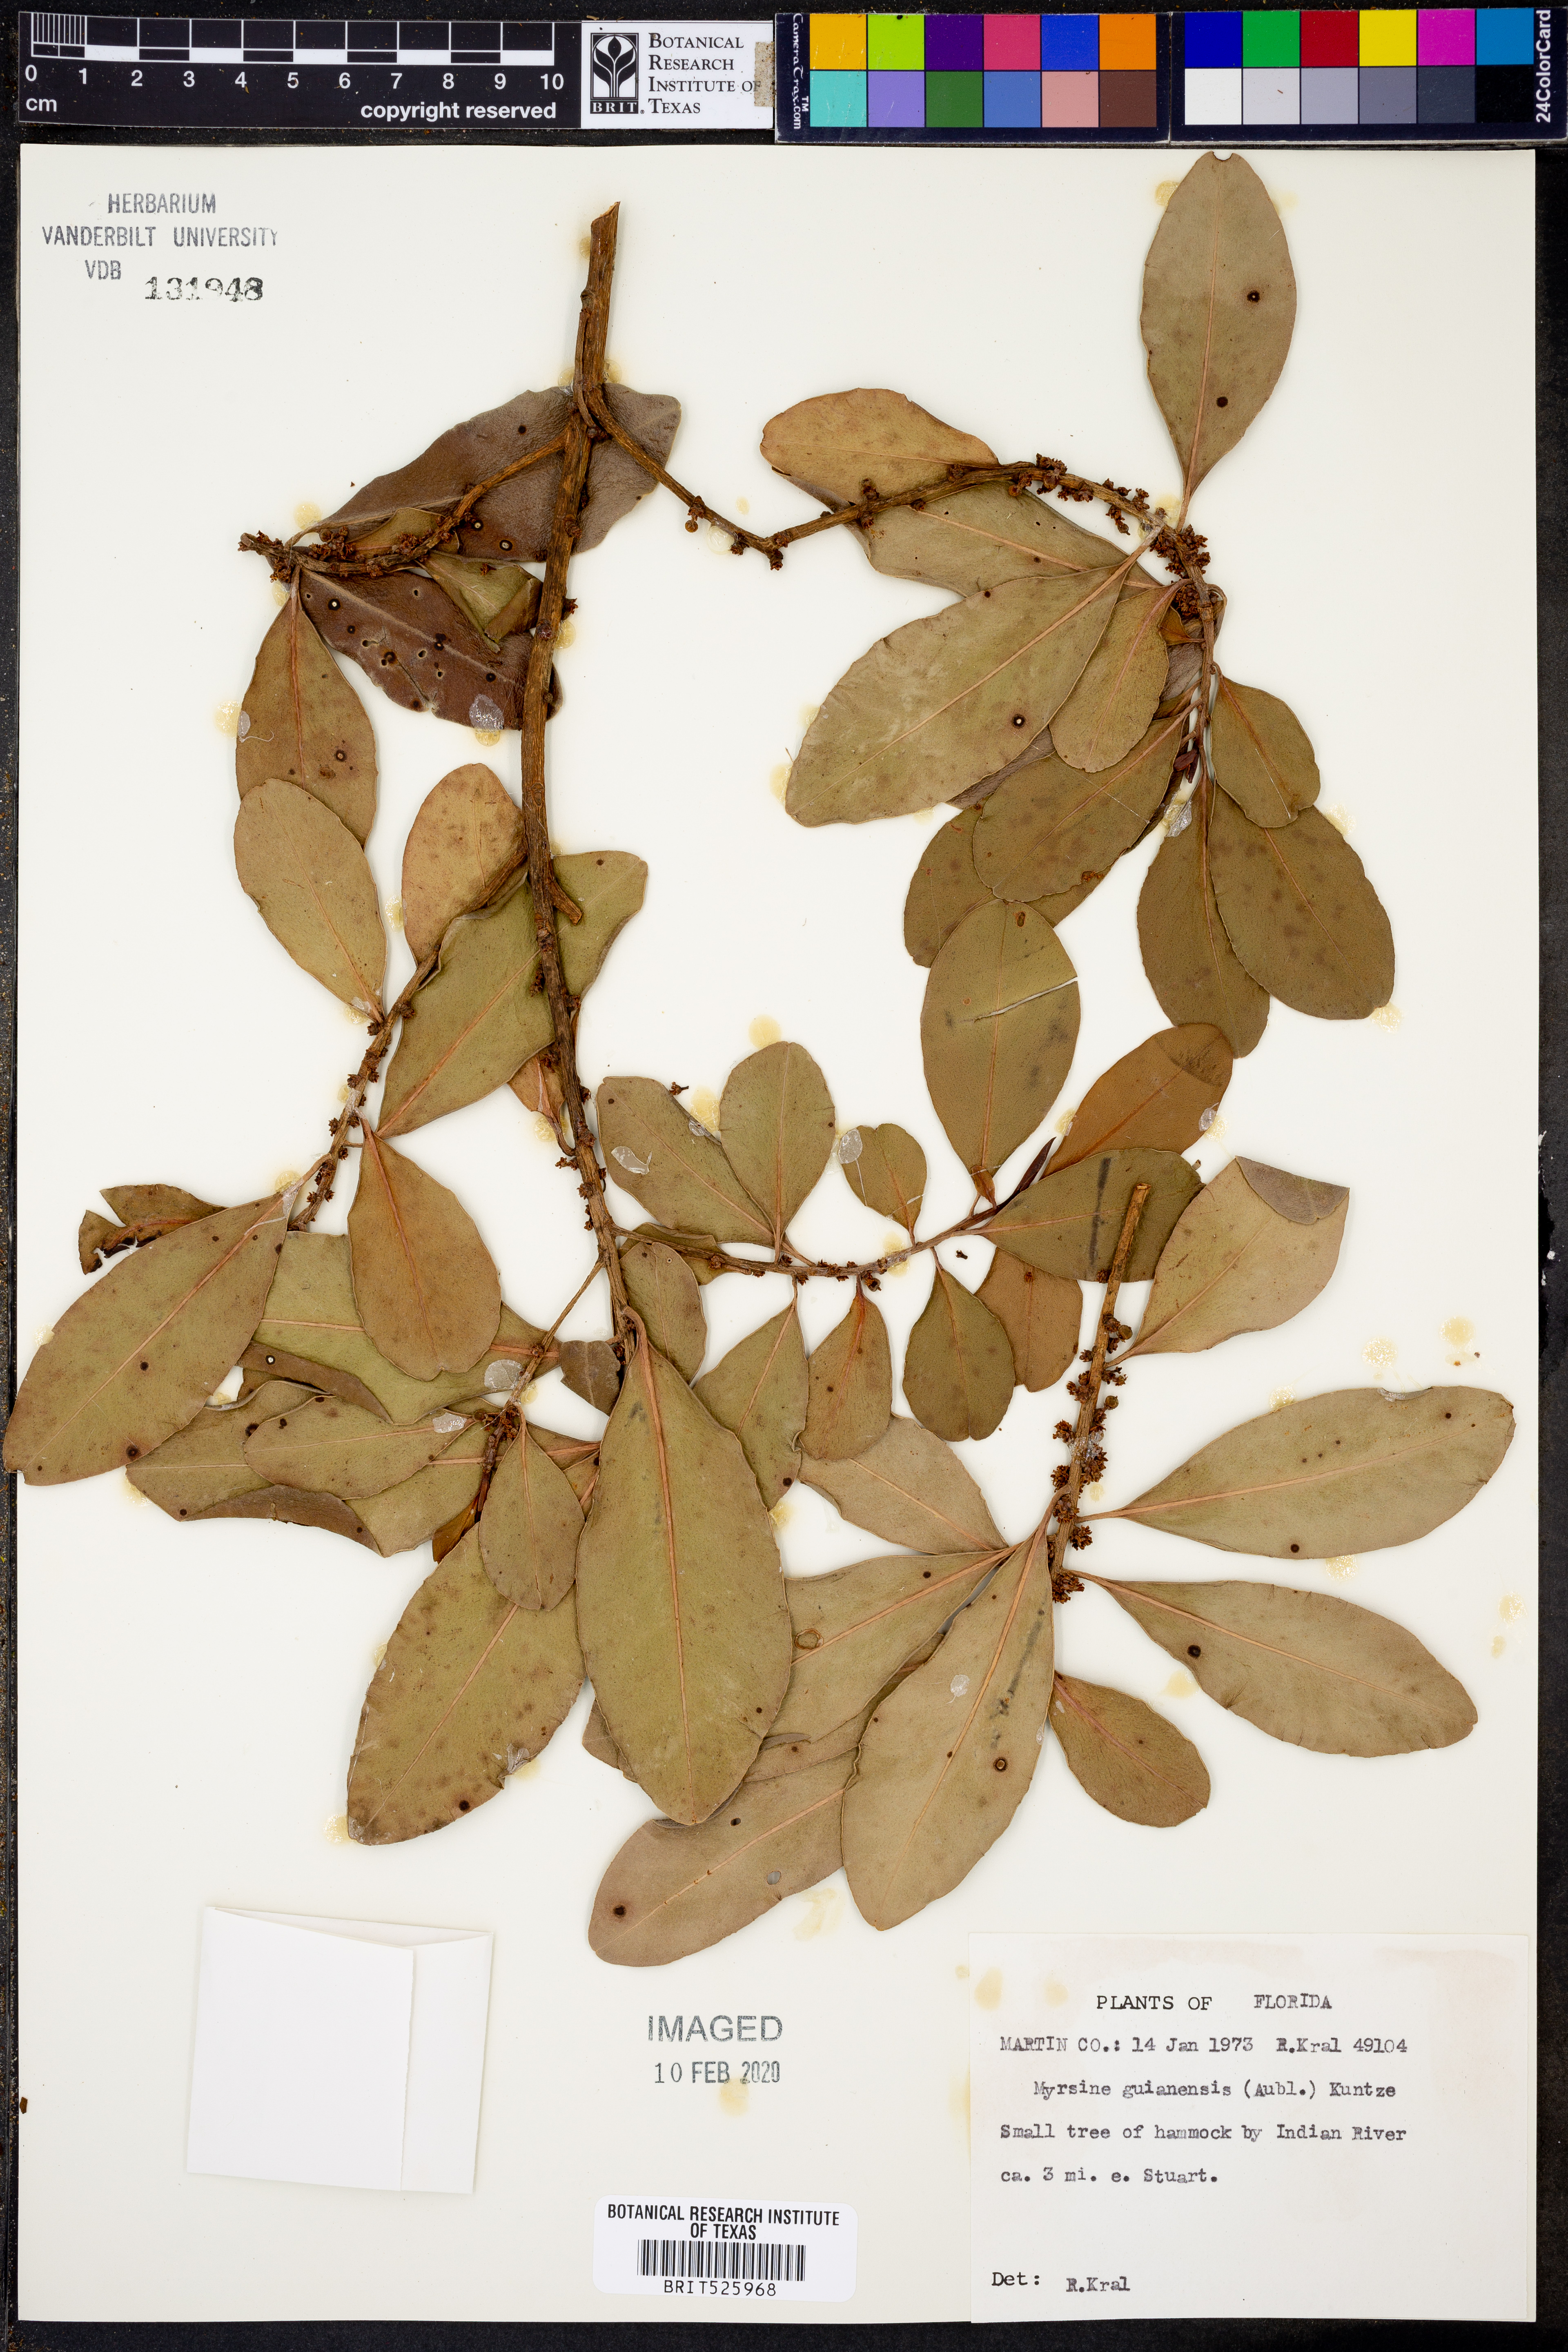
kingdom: Plantae
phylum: Tracheophyta
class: Magnoliopsida
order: Ericales
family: Primulaceae
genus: Myrsine
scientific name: Myrsine guianensis
